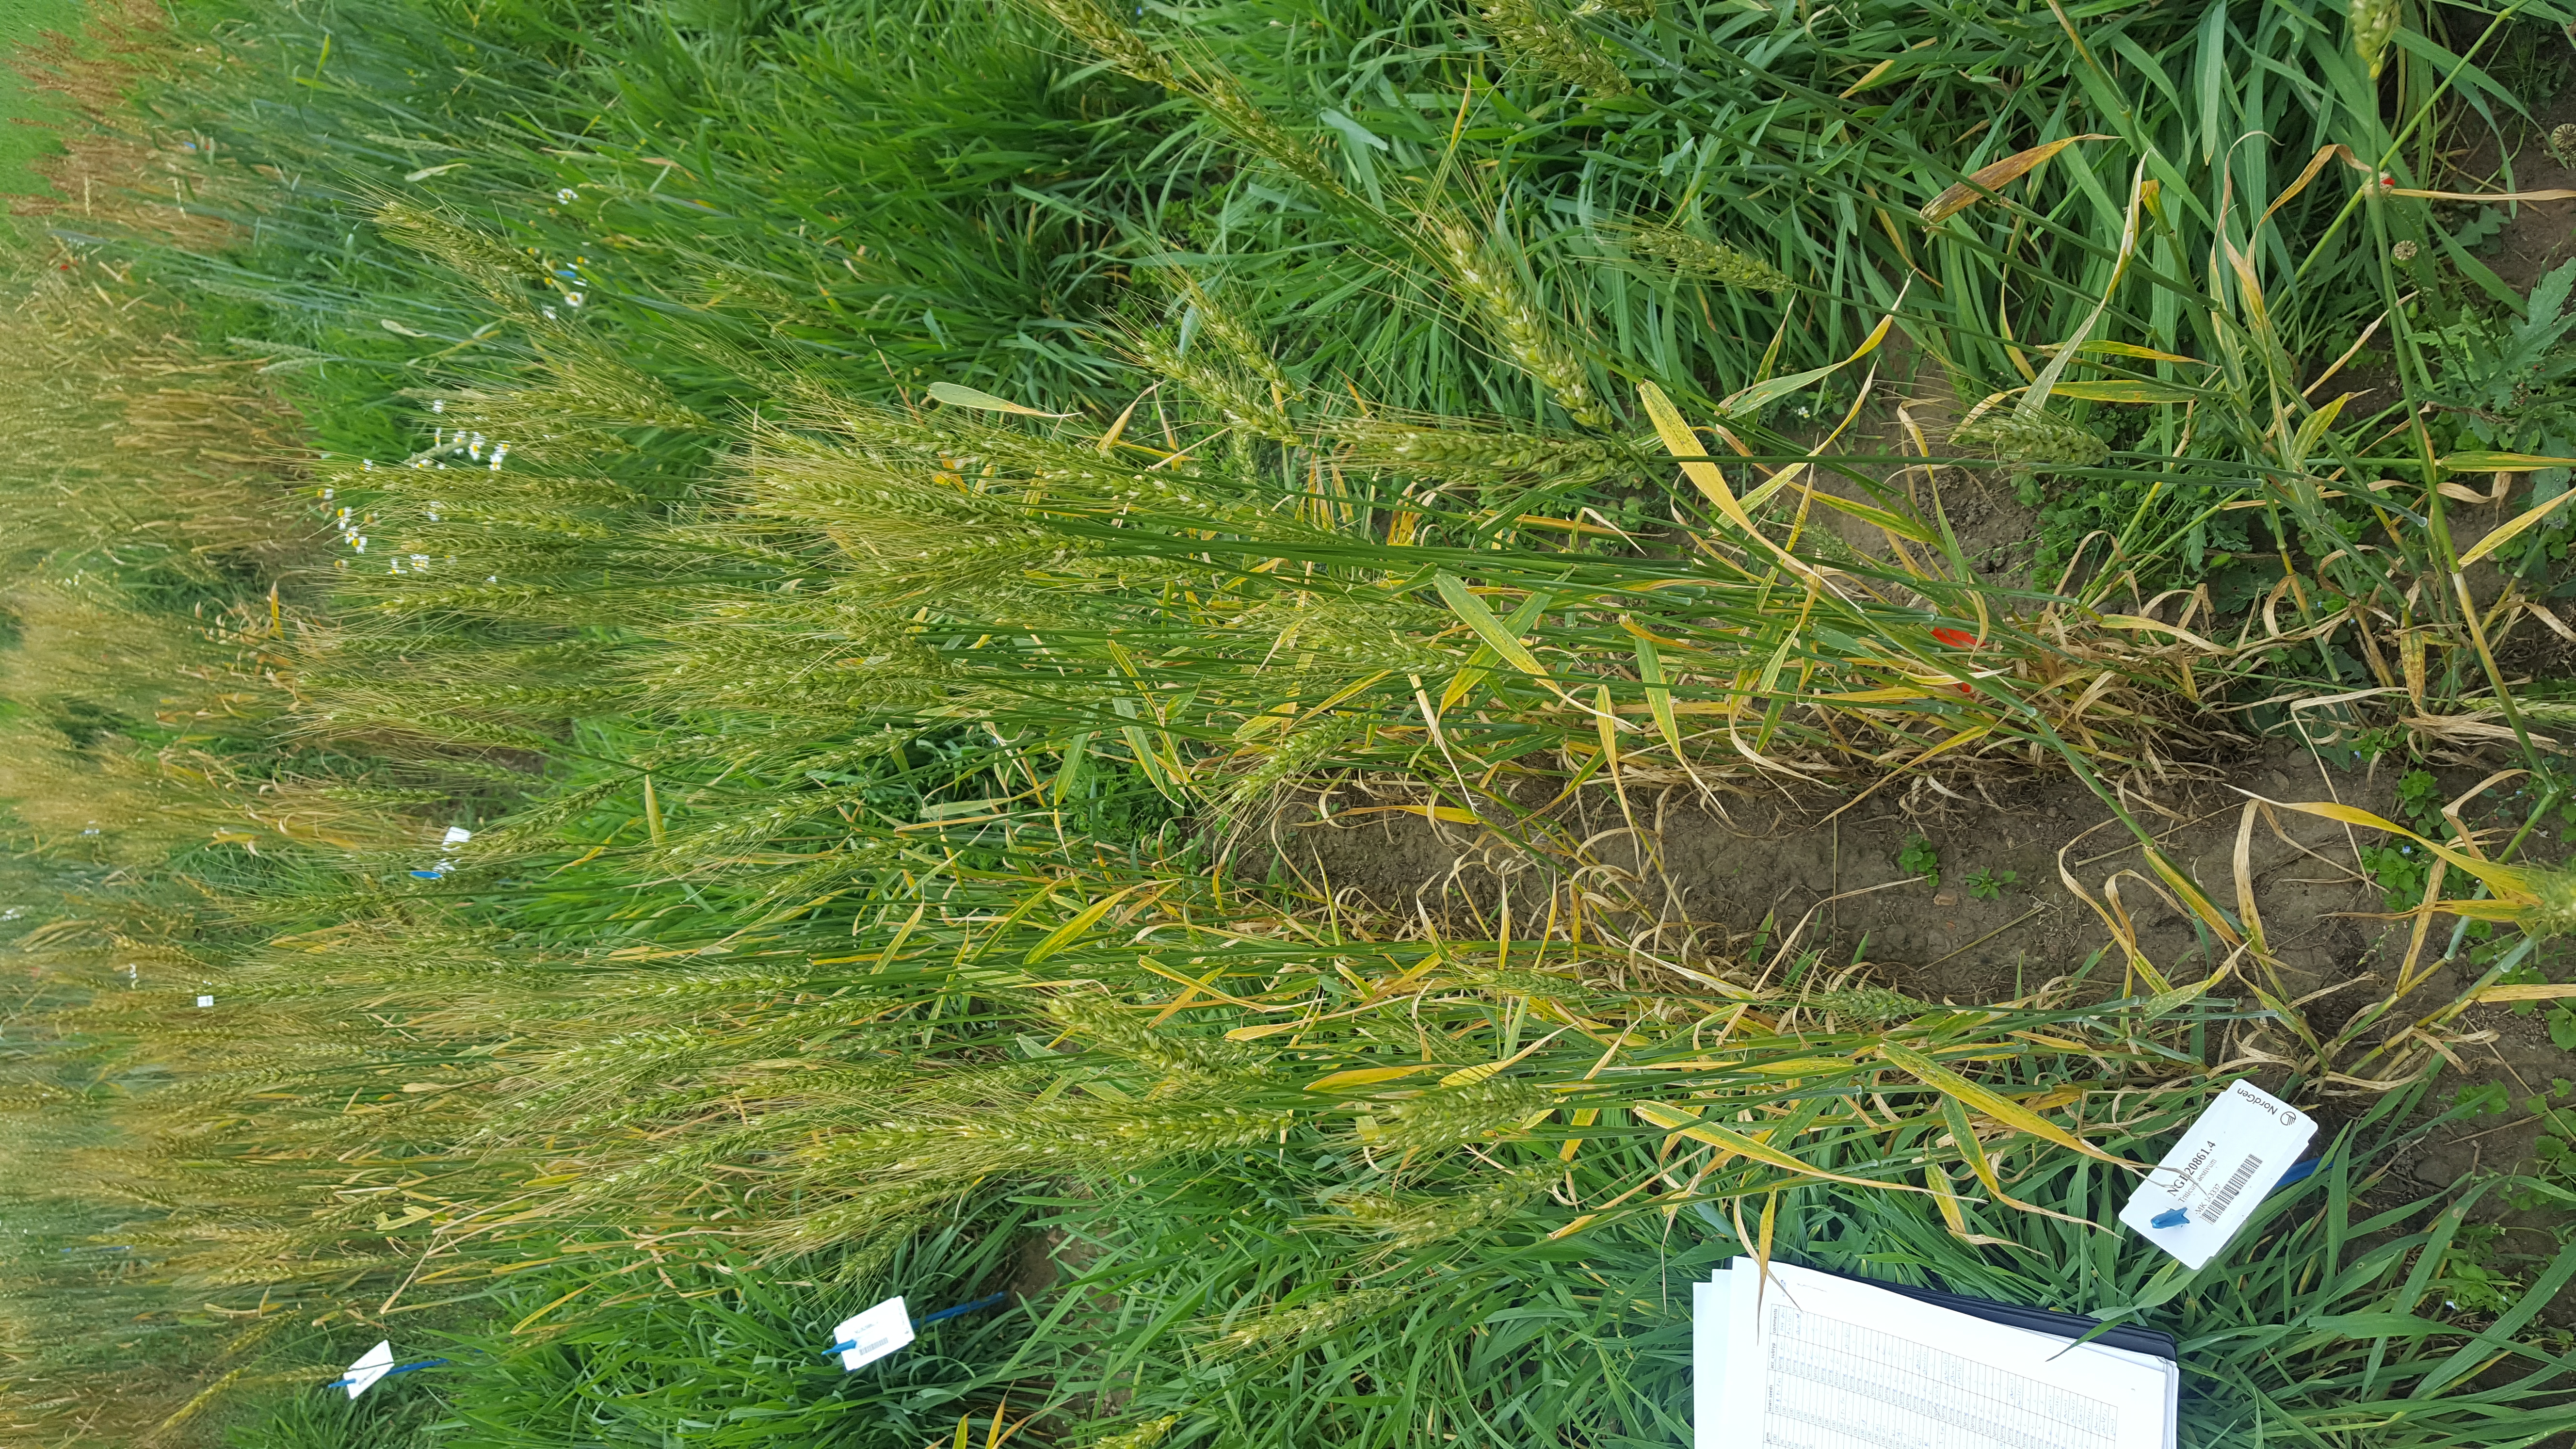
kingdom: Plantae
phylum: Tracheophyta
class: Liliopsida
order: Poales
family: Poaceae
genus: Triticum
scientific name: Triticum aestivum
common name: Common wheat
